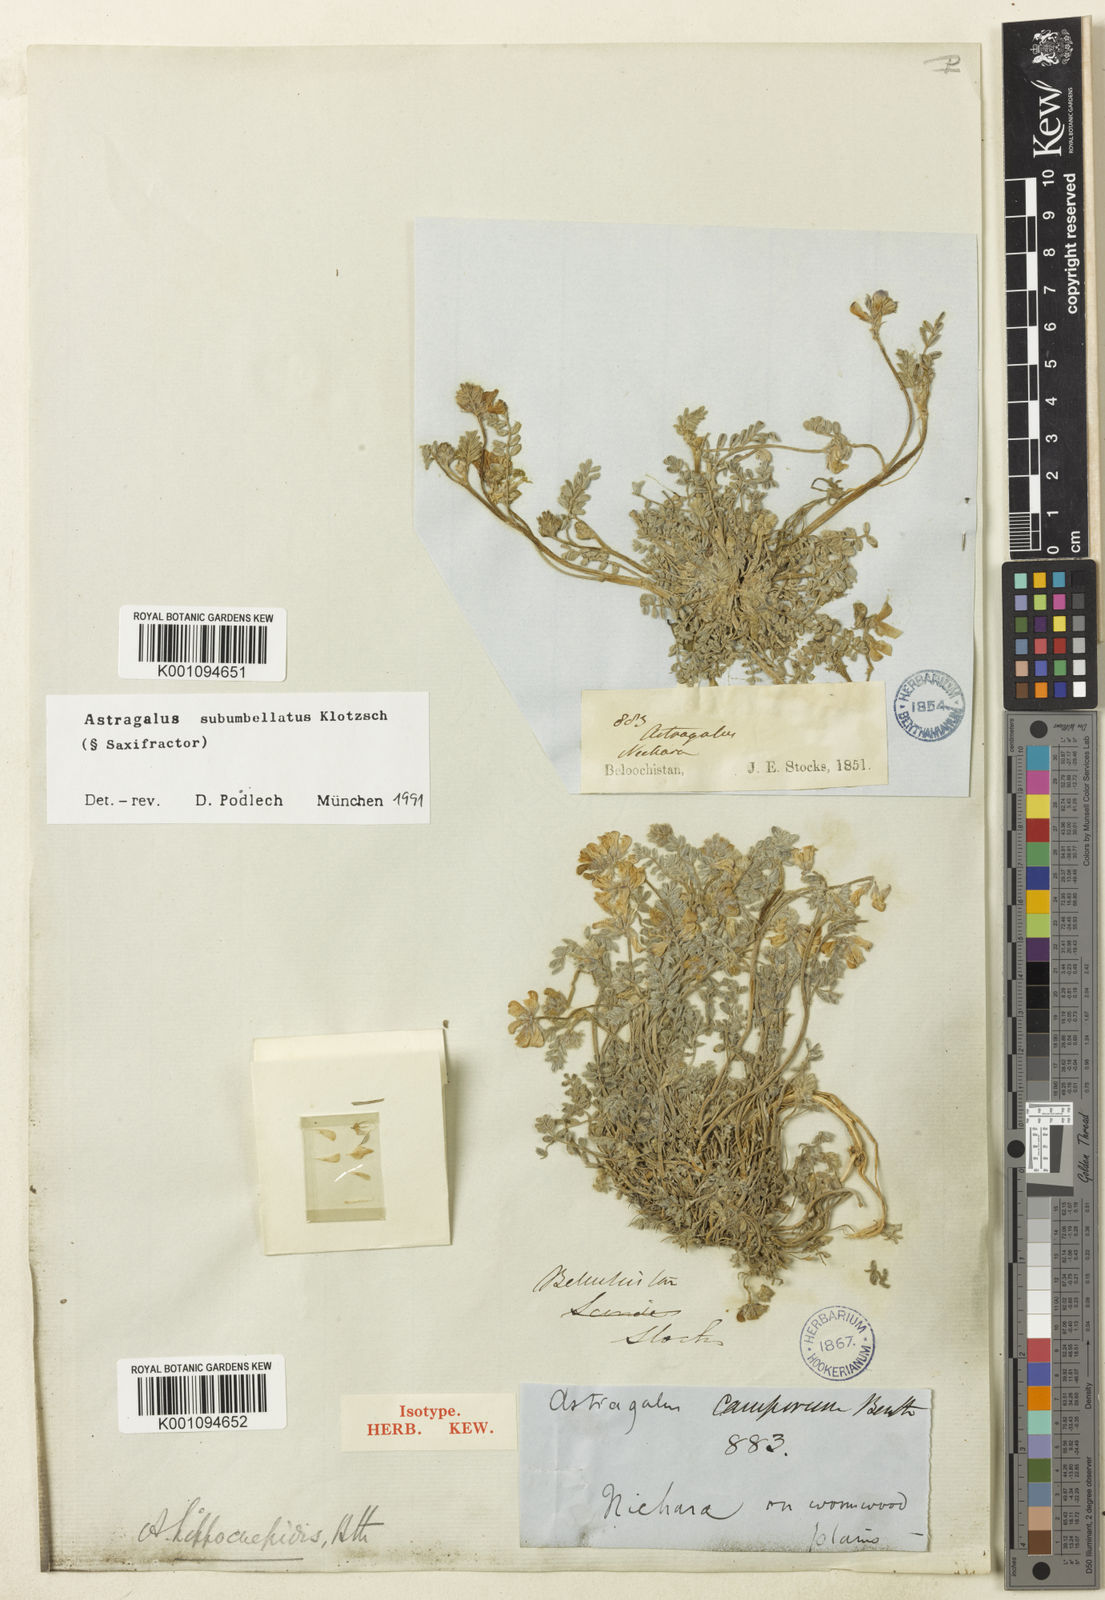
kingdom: Plantae
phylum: Tracheophyta
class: Magnoliopsida
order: Fabales
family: Fabaceae
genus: Astragalus
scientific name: Astragalus
